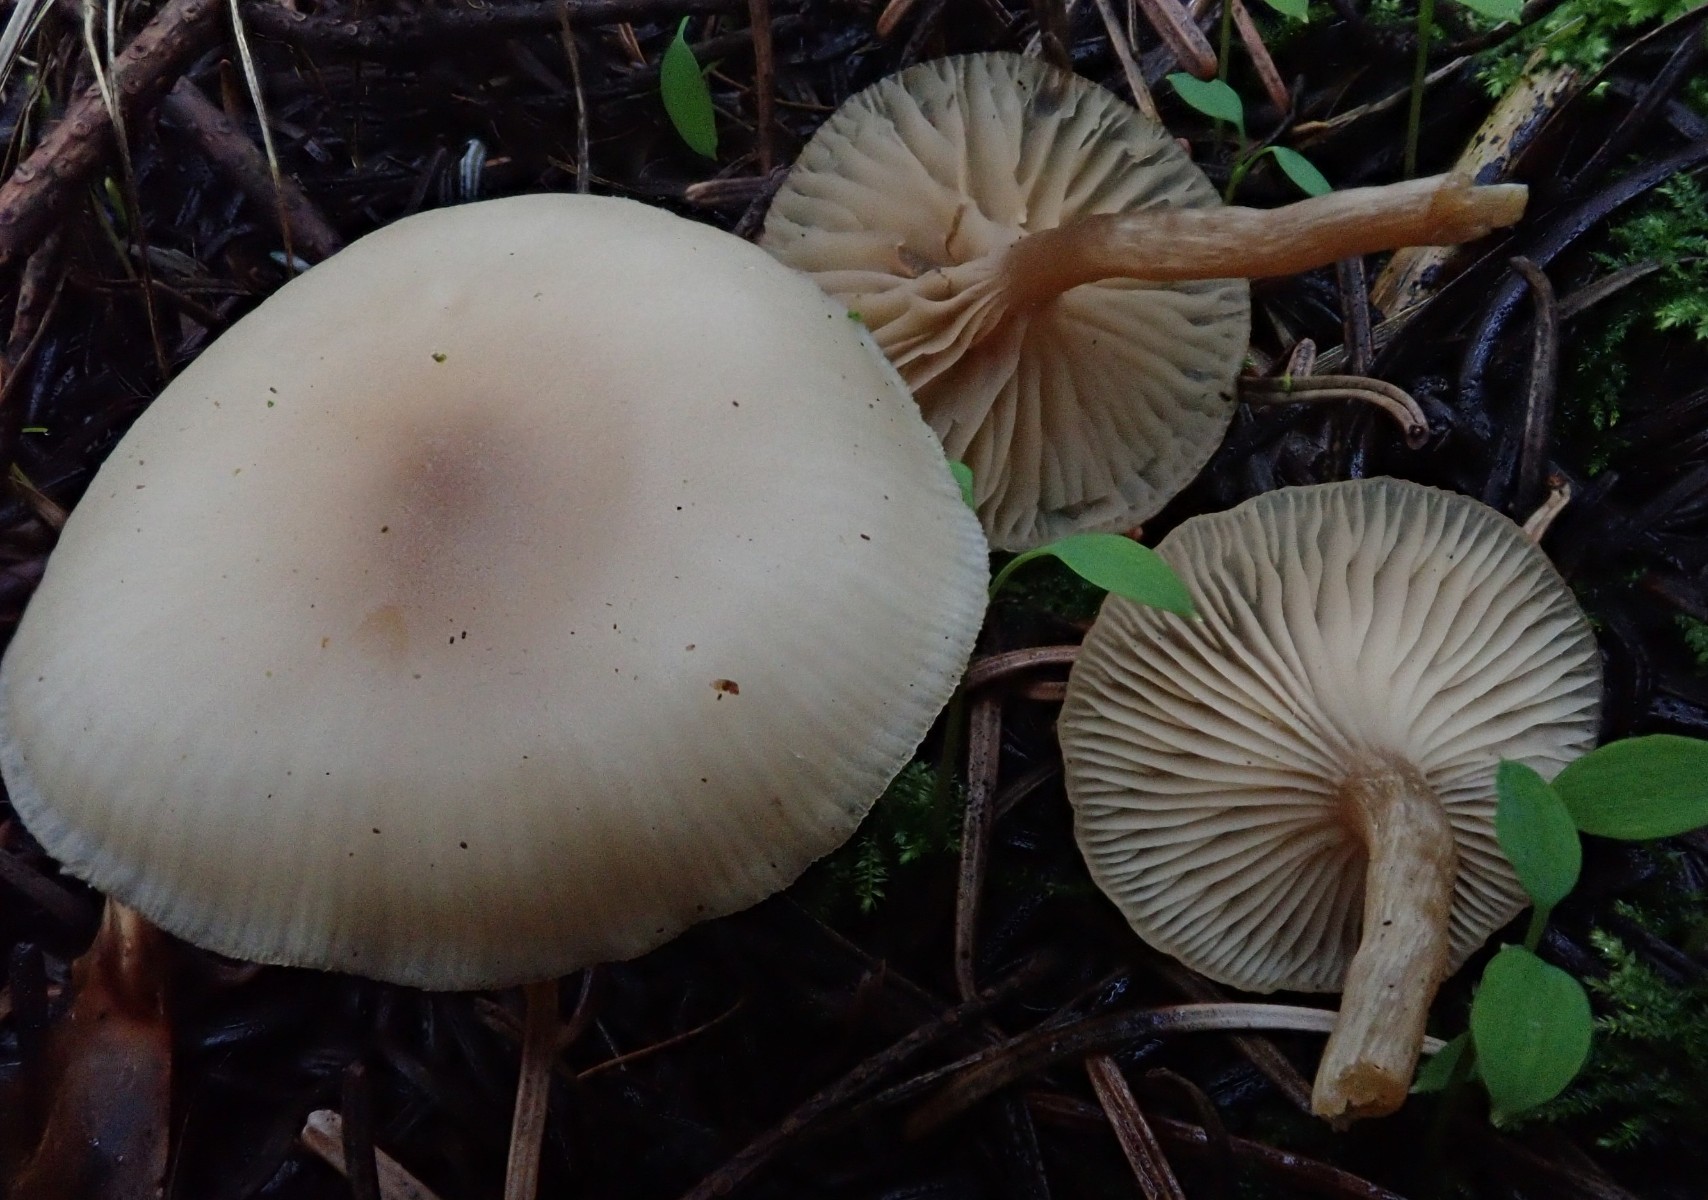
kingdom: Fungi
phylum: Basidiomycota
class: Agaricomycetes
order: Agaricales
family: Tricholomataceae
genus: Clitocybe
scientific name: Clitocybe fragrans
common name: vellugtende tragthat
